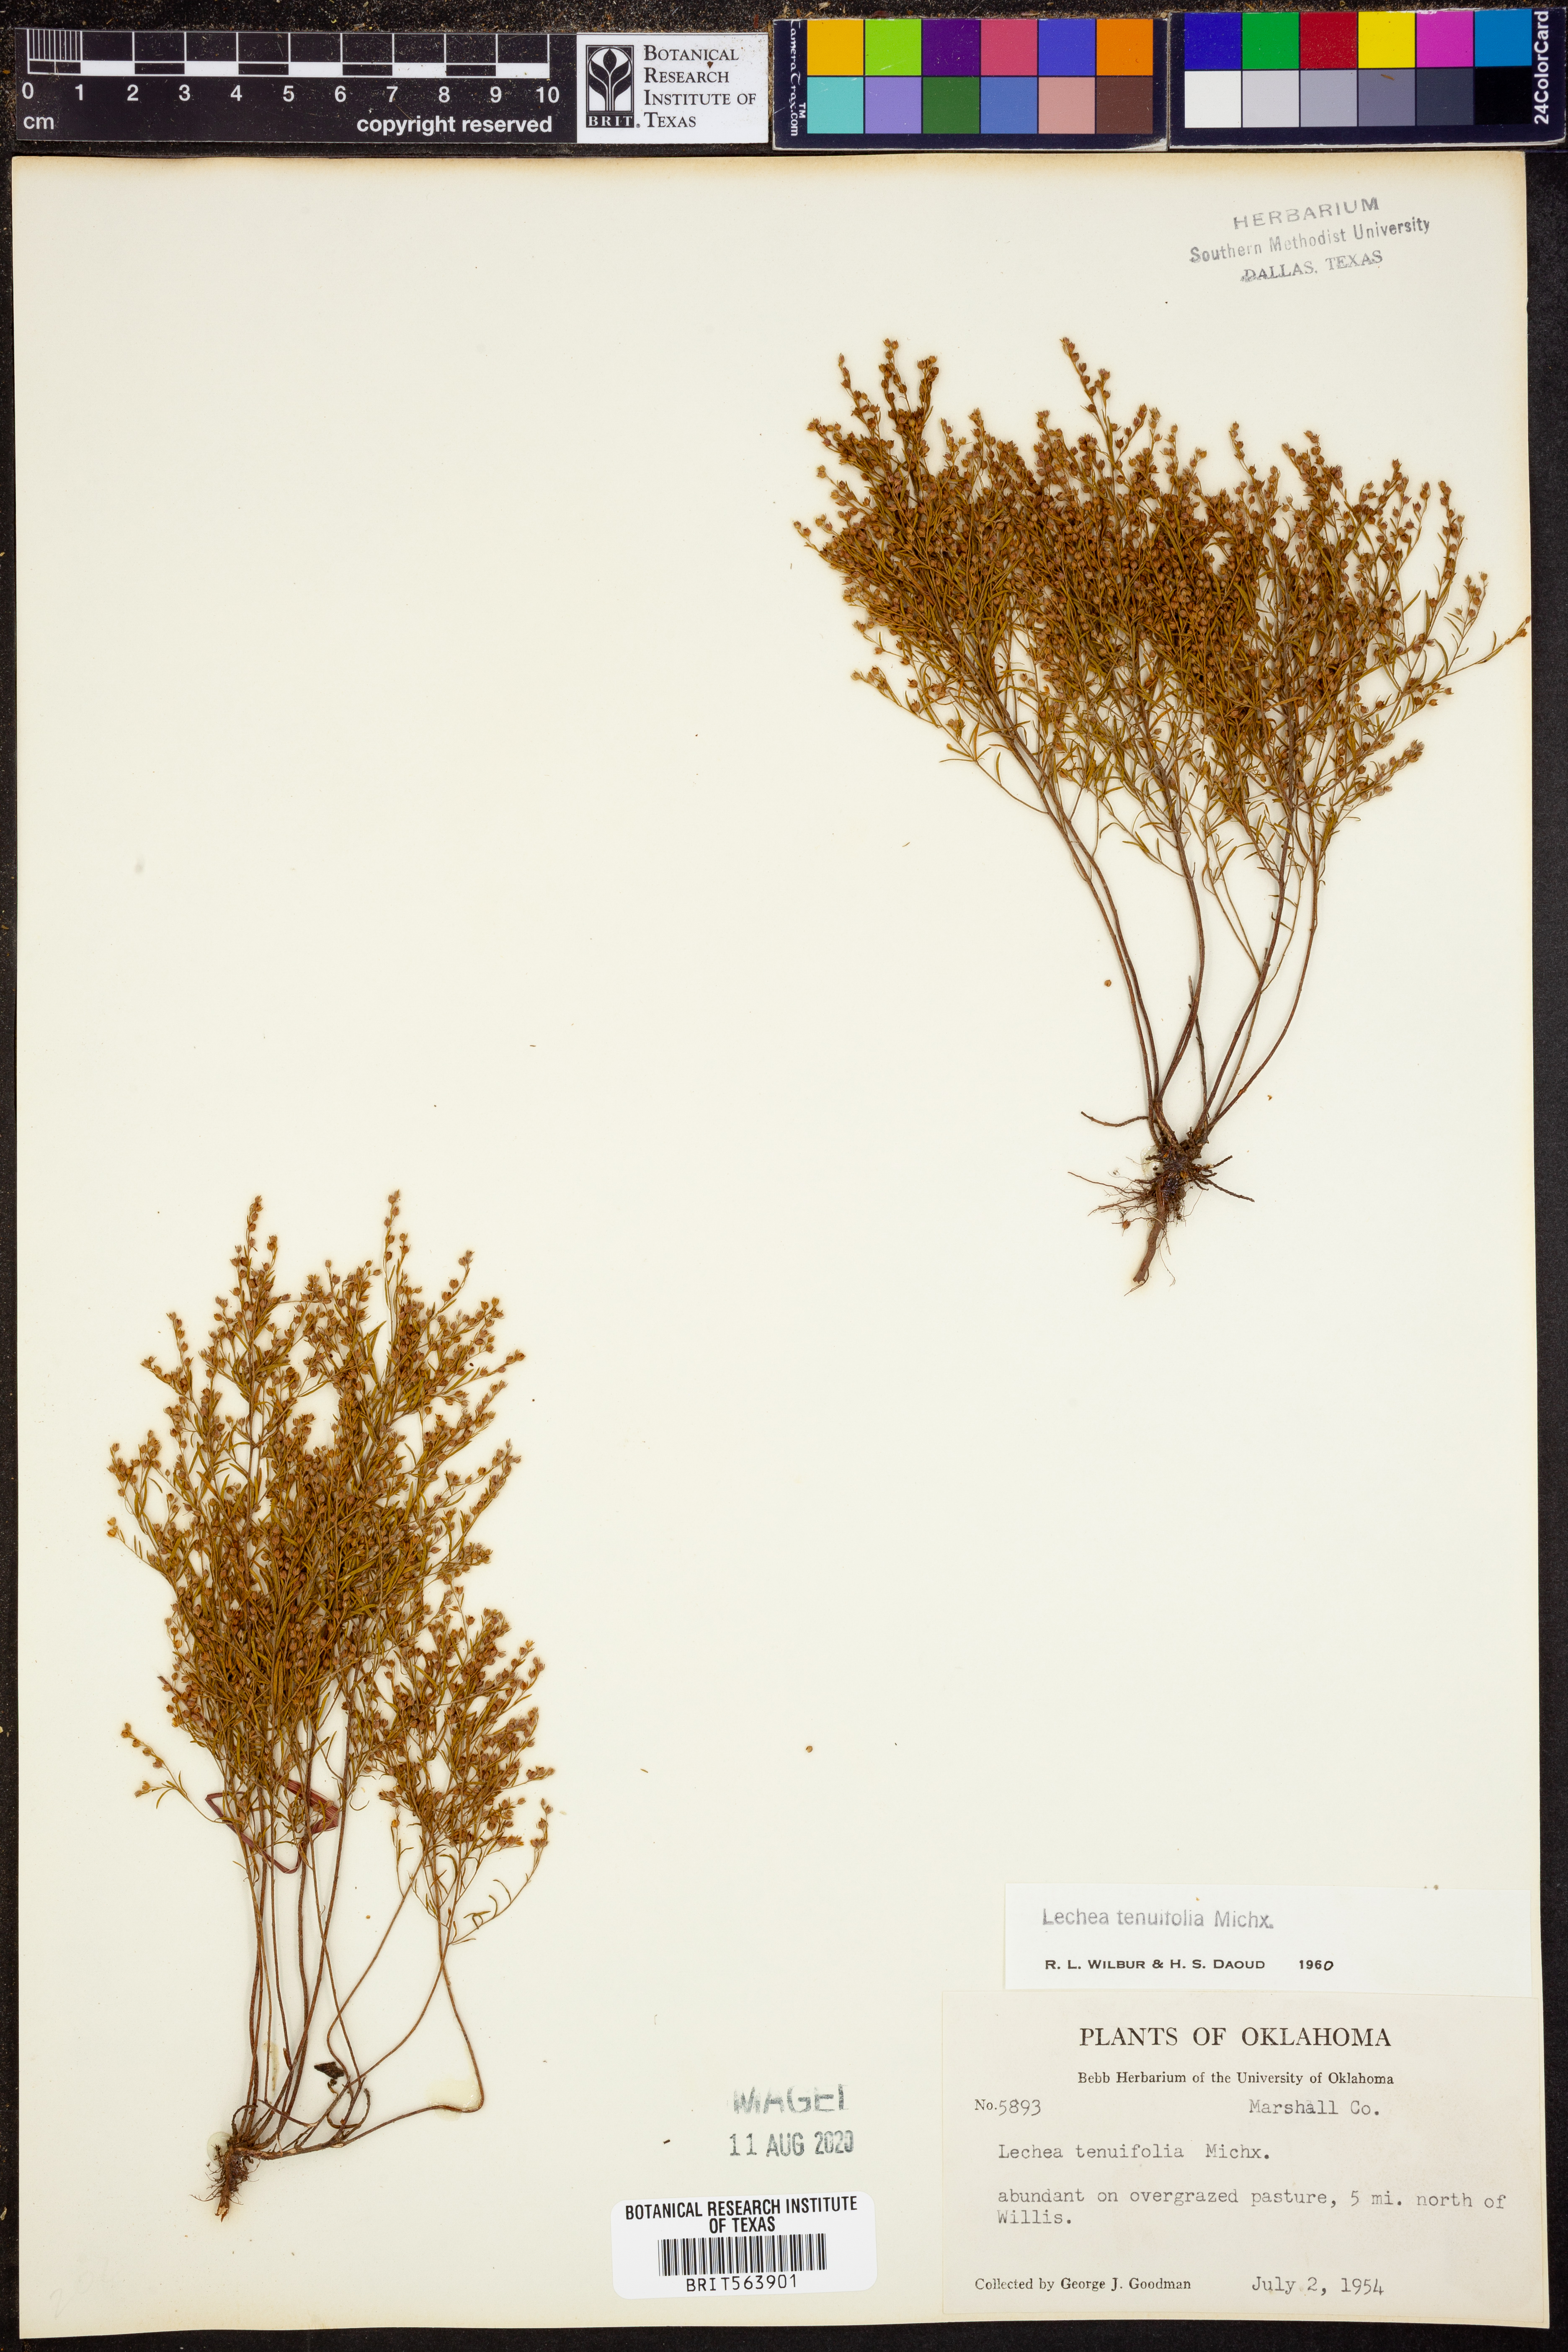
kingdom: Plantae
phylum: Tracheophyta
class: Magnoliopsida
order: Malvales
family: Cistaceae
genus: Lechea
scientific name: Lechea tenuifolia
